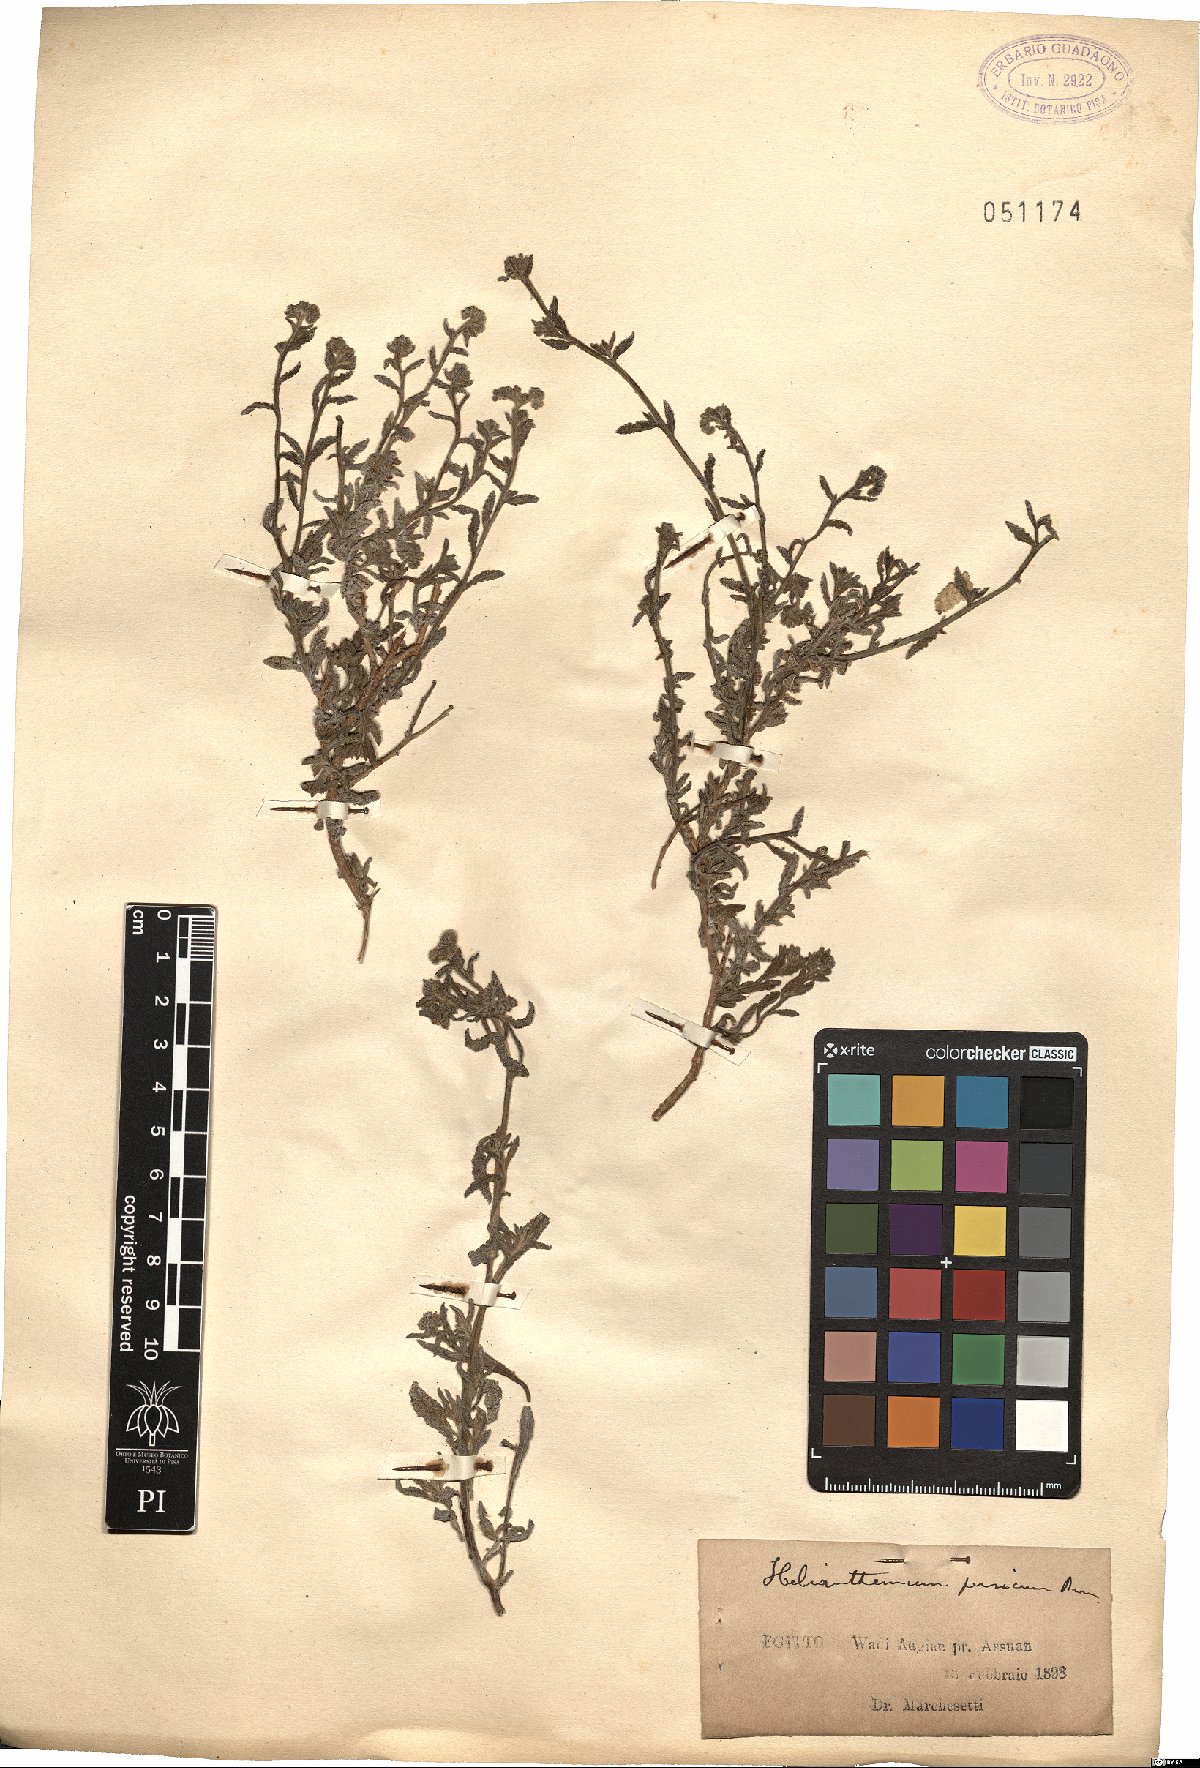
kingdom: Plantae
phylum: Tracheophyta
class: Magnoliopsida
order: Malvales
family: Cistaceae
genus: Helianthemum
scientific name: Helianthemum
